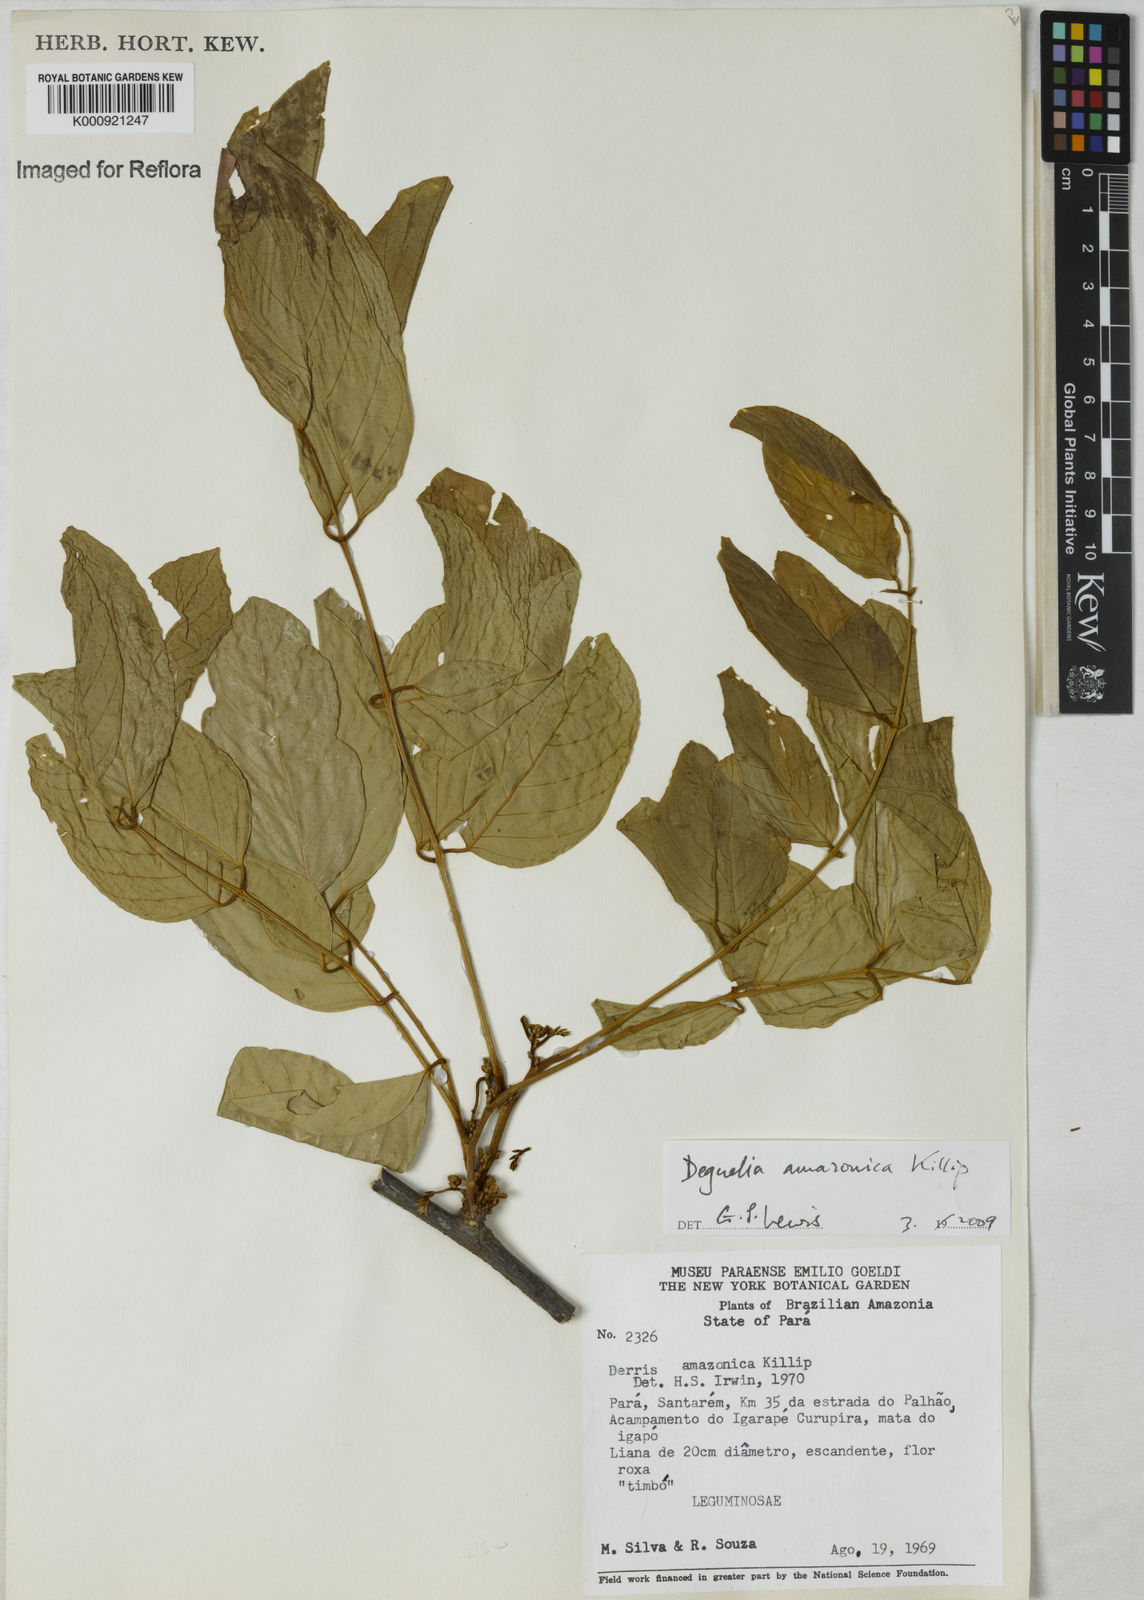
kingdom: Plantae
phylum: Tracheophyta
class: Magnoliopsida
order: Fabales
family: Fabaceae
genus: Deguelia
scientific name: Deguelia amazonica
